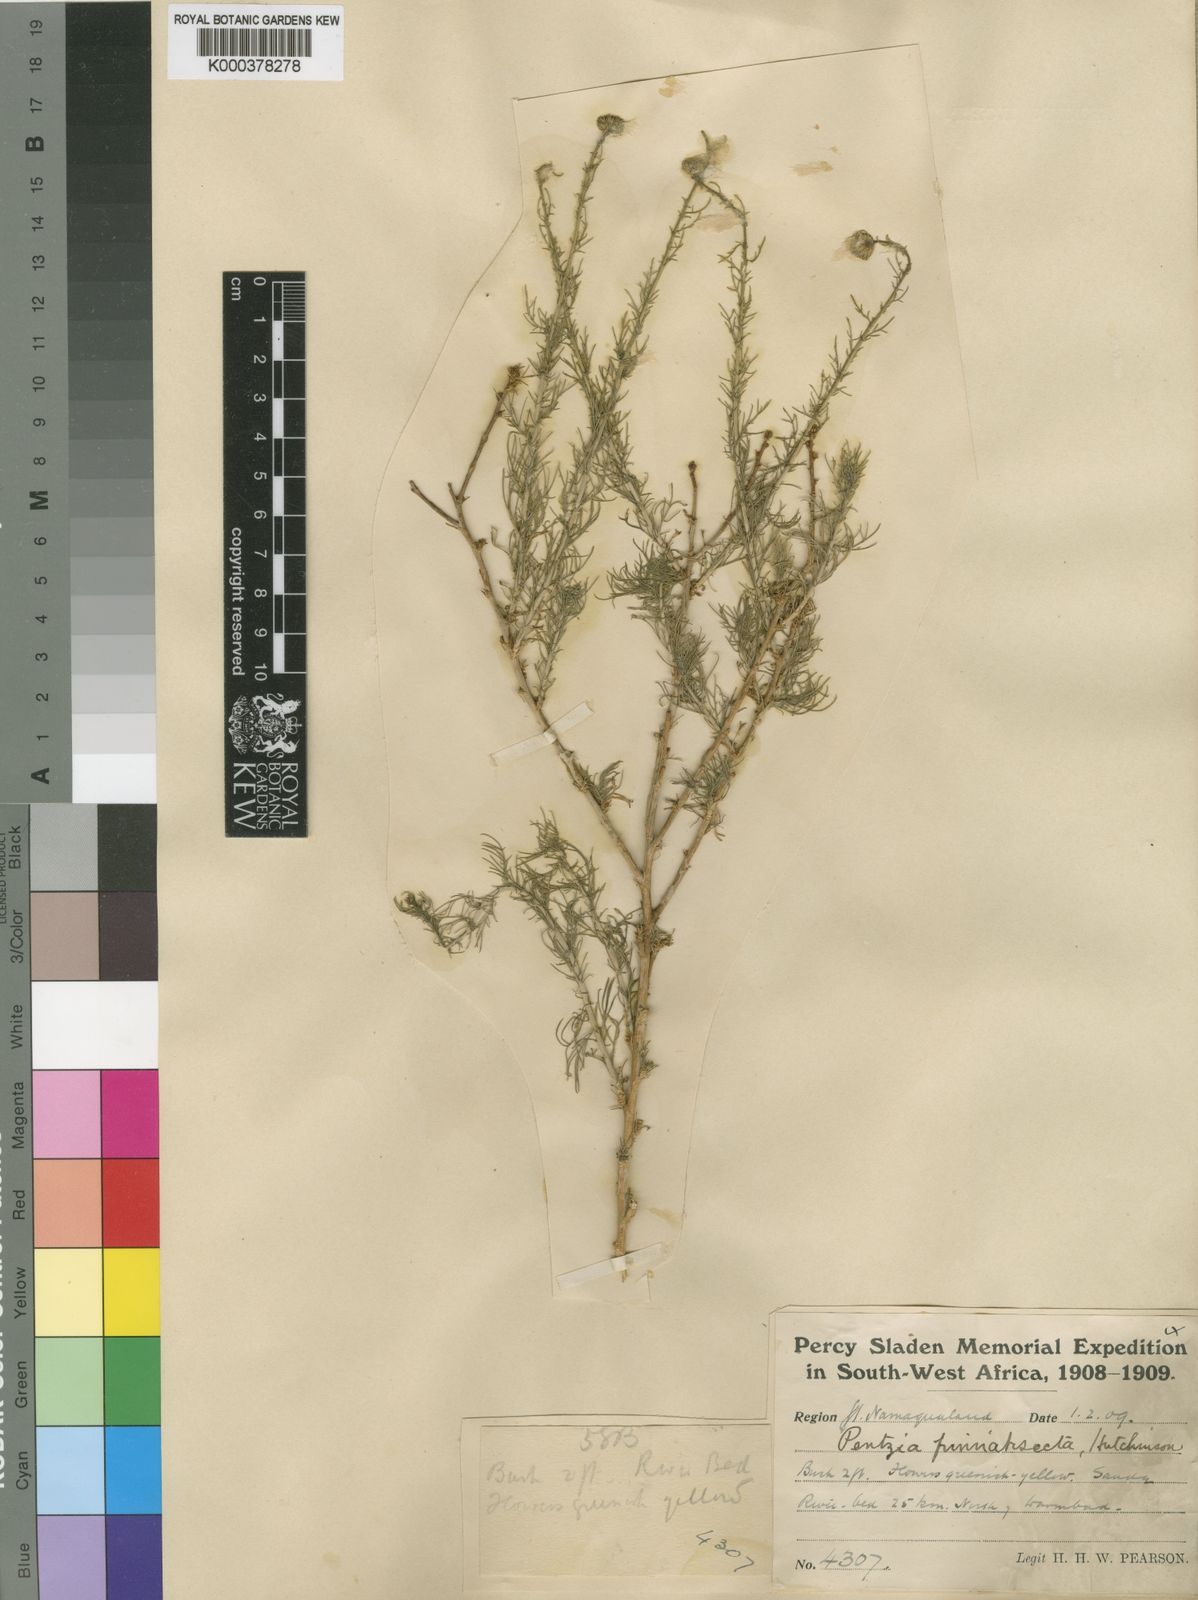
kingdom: Plantae
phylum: Tracheophyta
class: Magnoliopsida
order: Asterales
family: Asteraceae
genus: Pentzia
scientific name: Pentzia pinnatisecta
